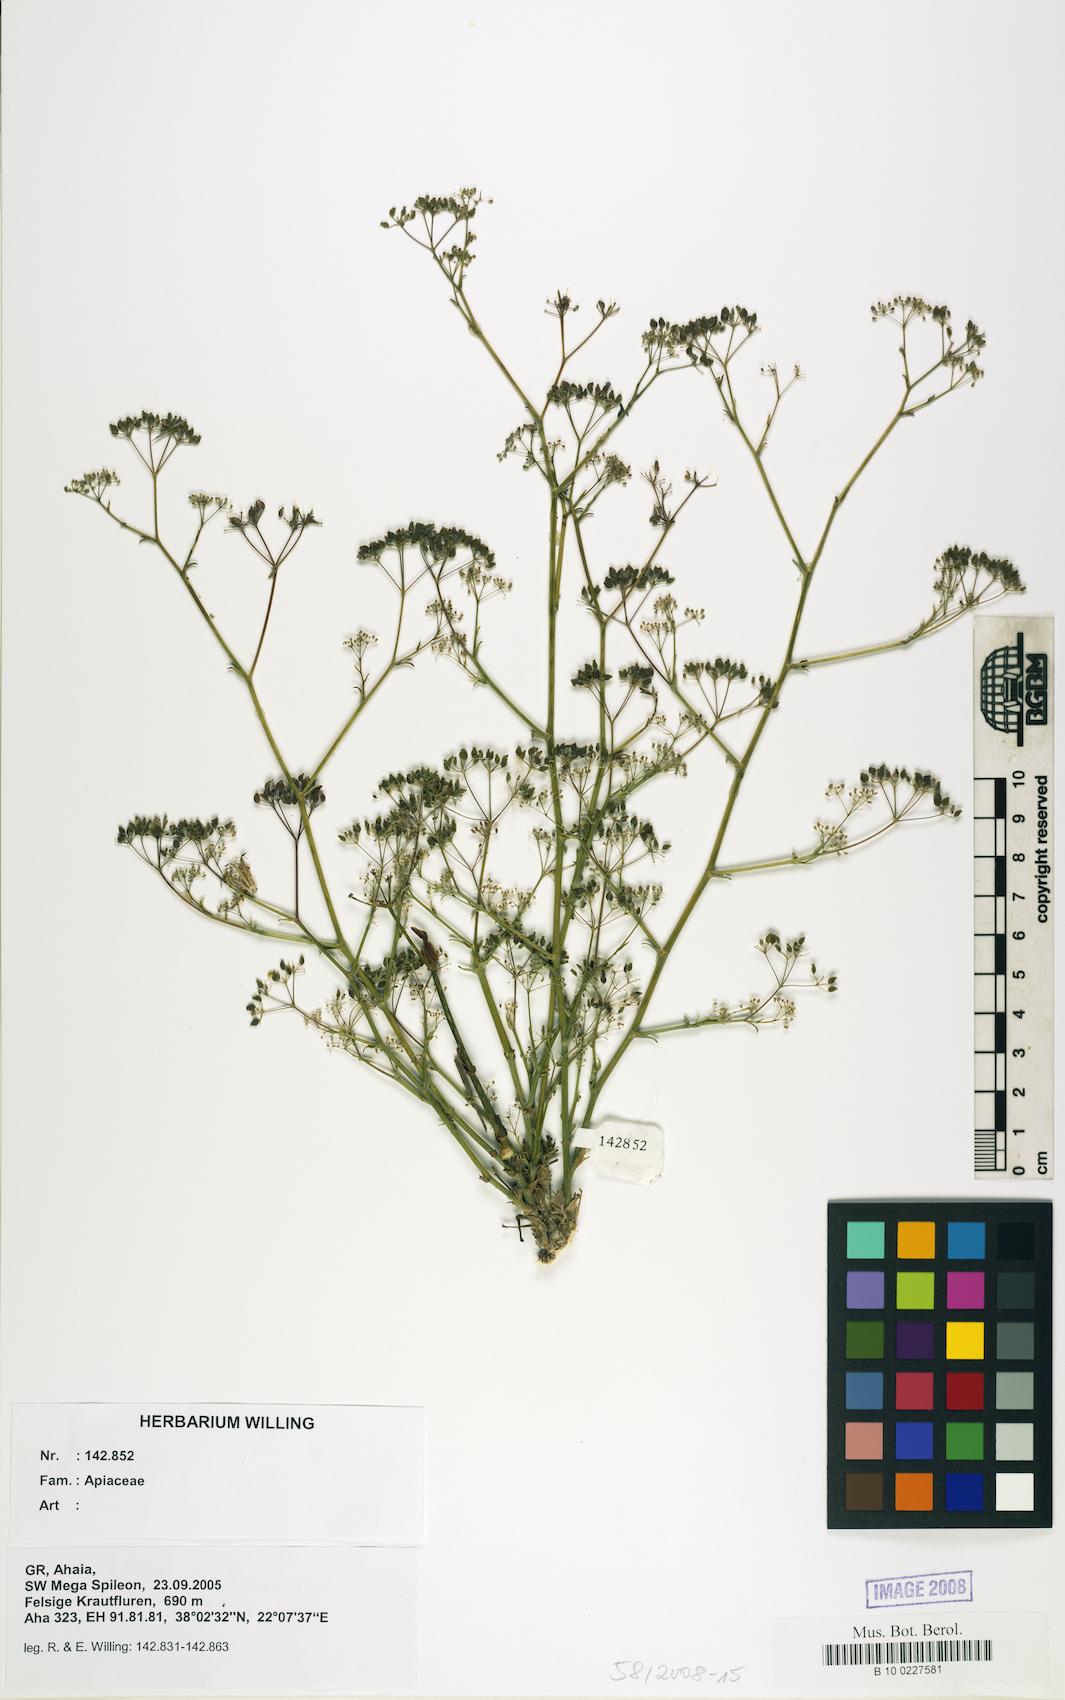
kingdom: Plantae
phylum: Tracheophyta
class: Magnoliopsida
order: Apiales
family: Apiaceae
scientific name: Apiaceae
